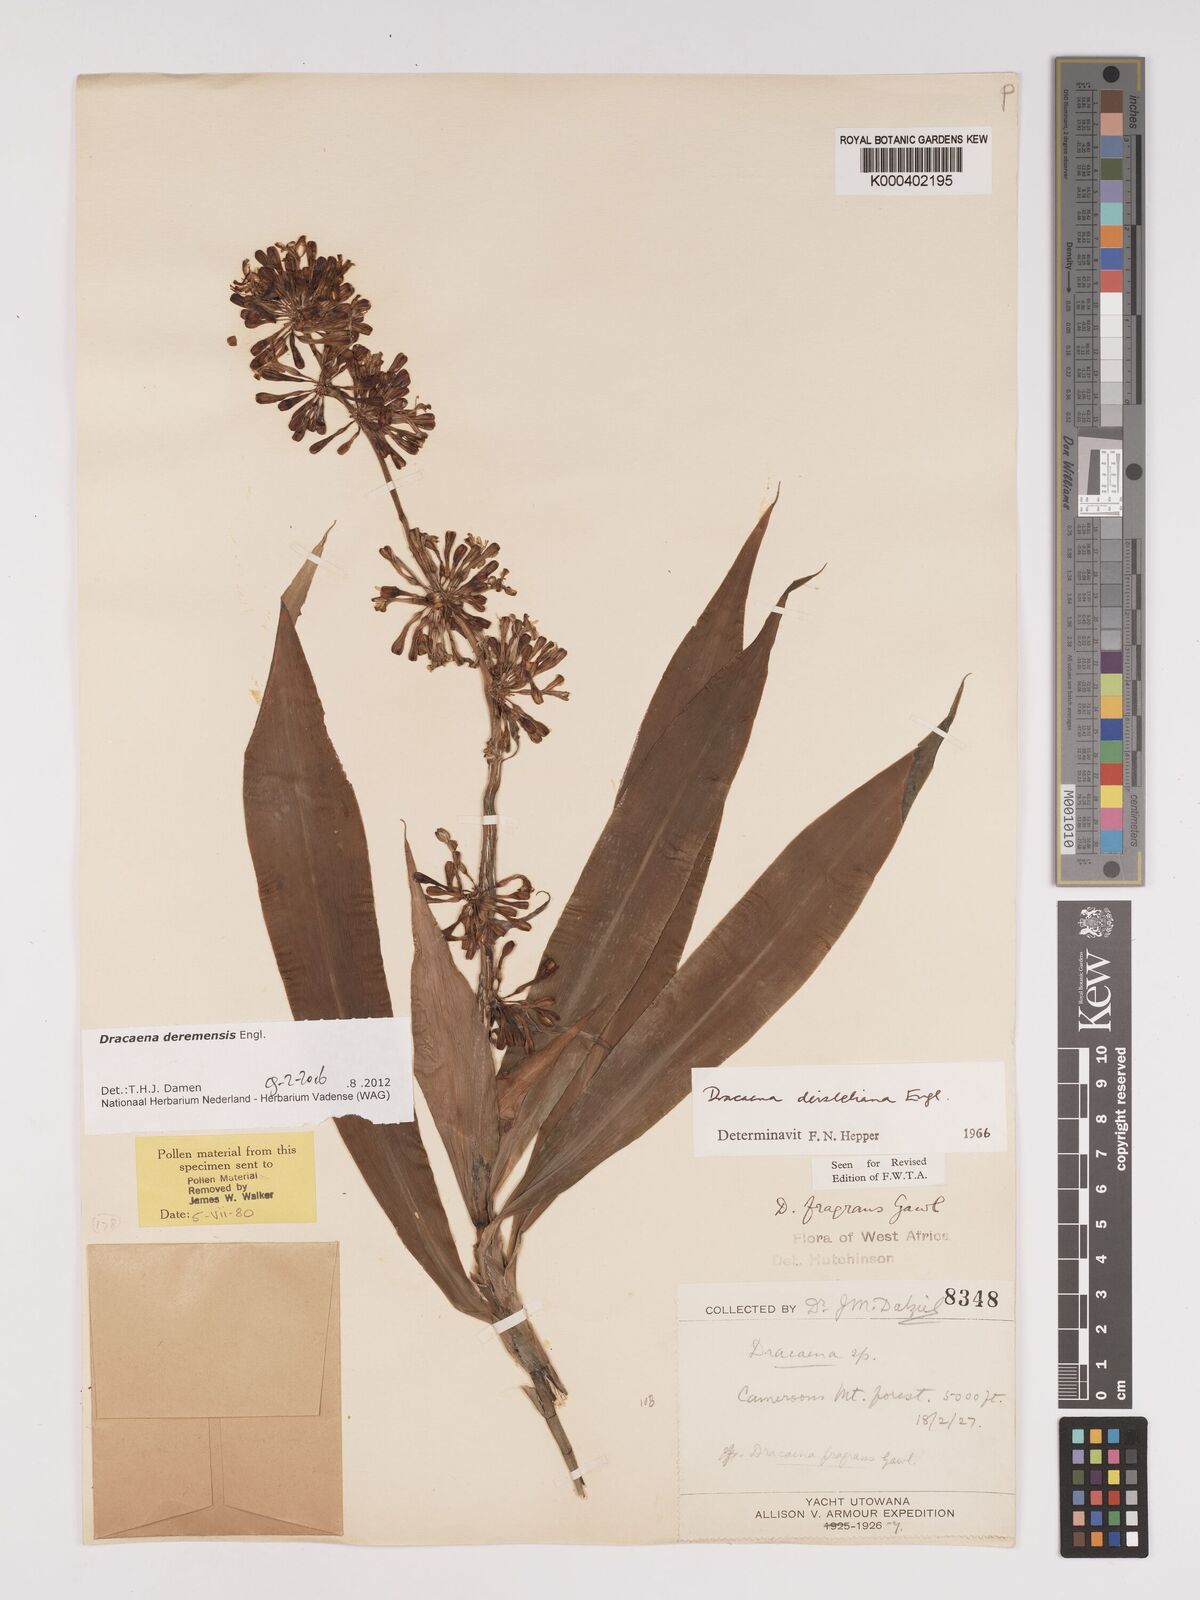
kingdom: Plantae
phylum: Tracheophyta
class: Liliopsida
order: Asparagales
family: Asparagaceae
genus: Dracaena
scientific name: Dracaena fragrans
